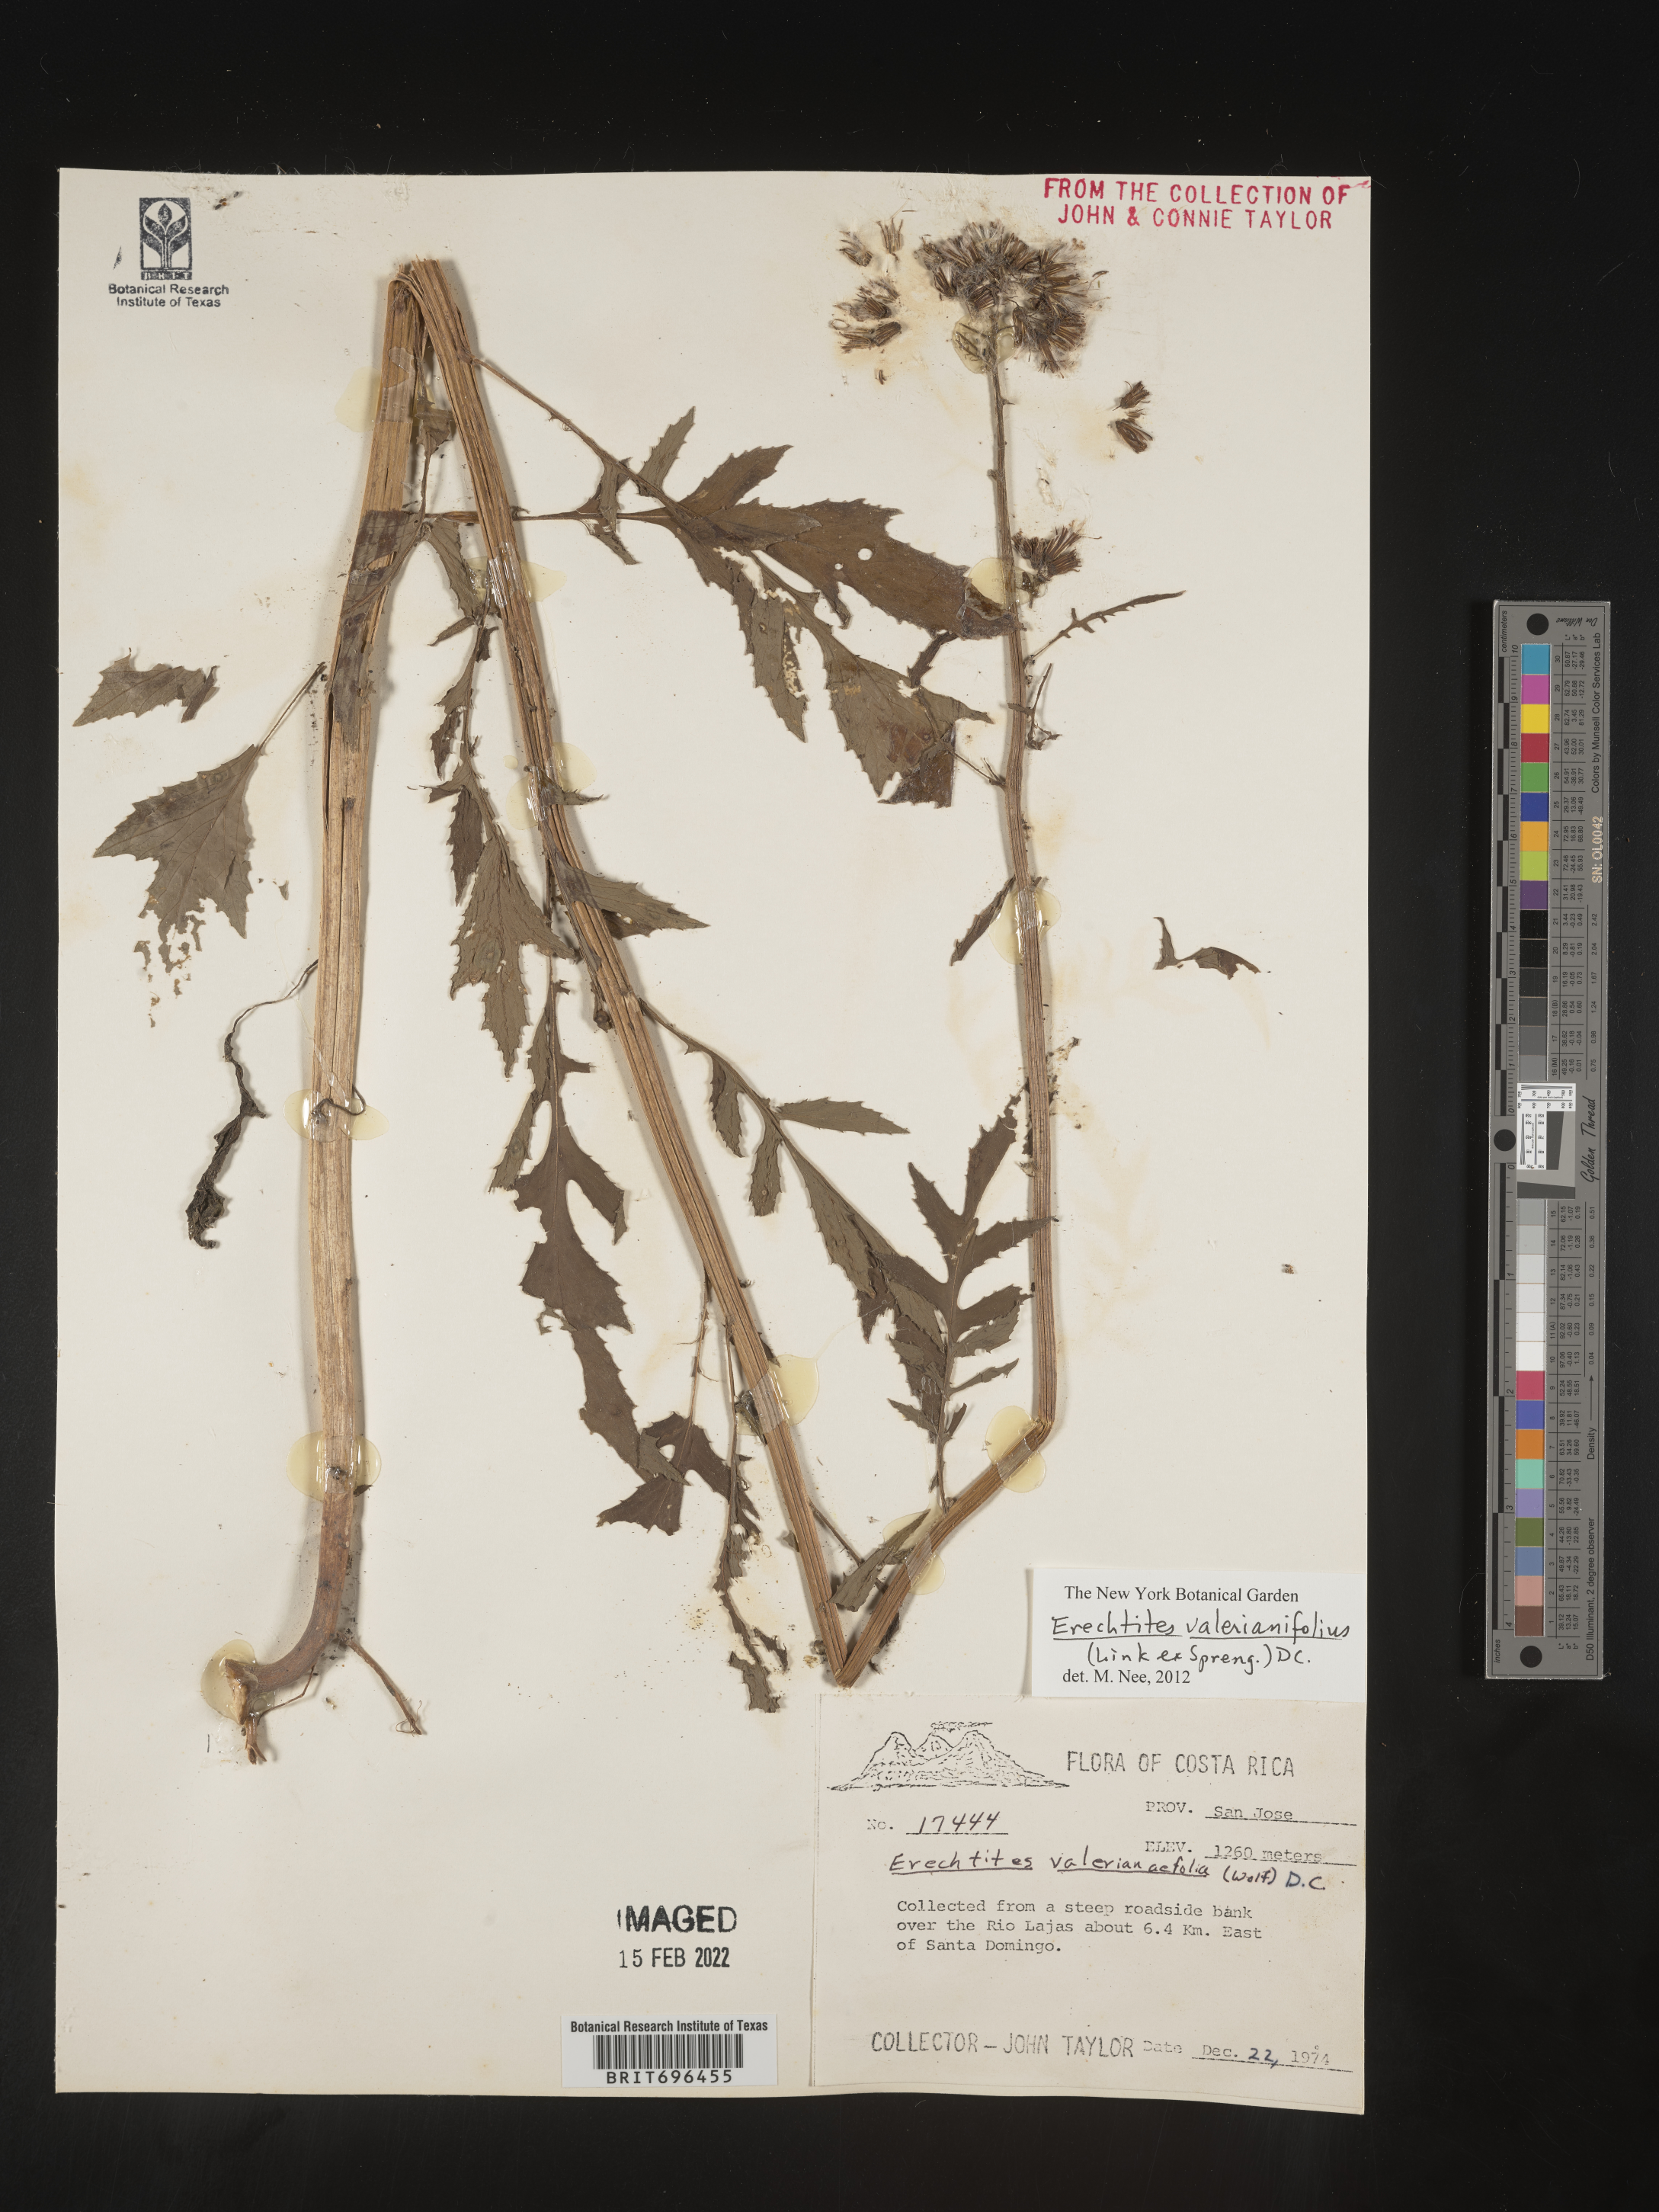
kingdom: Plantae
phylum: Tracheophyta
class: Magnoliopsida
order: Asterales
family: Asteraceae
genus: Erechtites
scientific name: Erechtites
